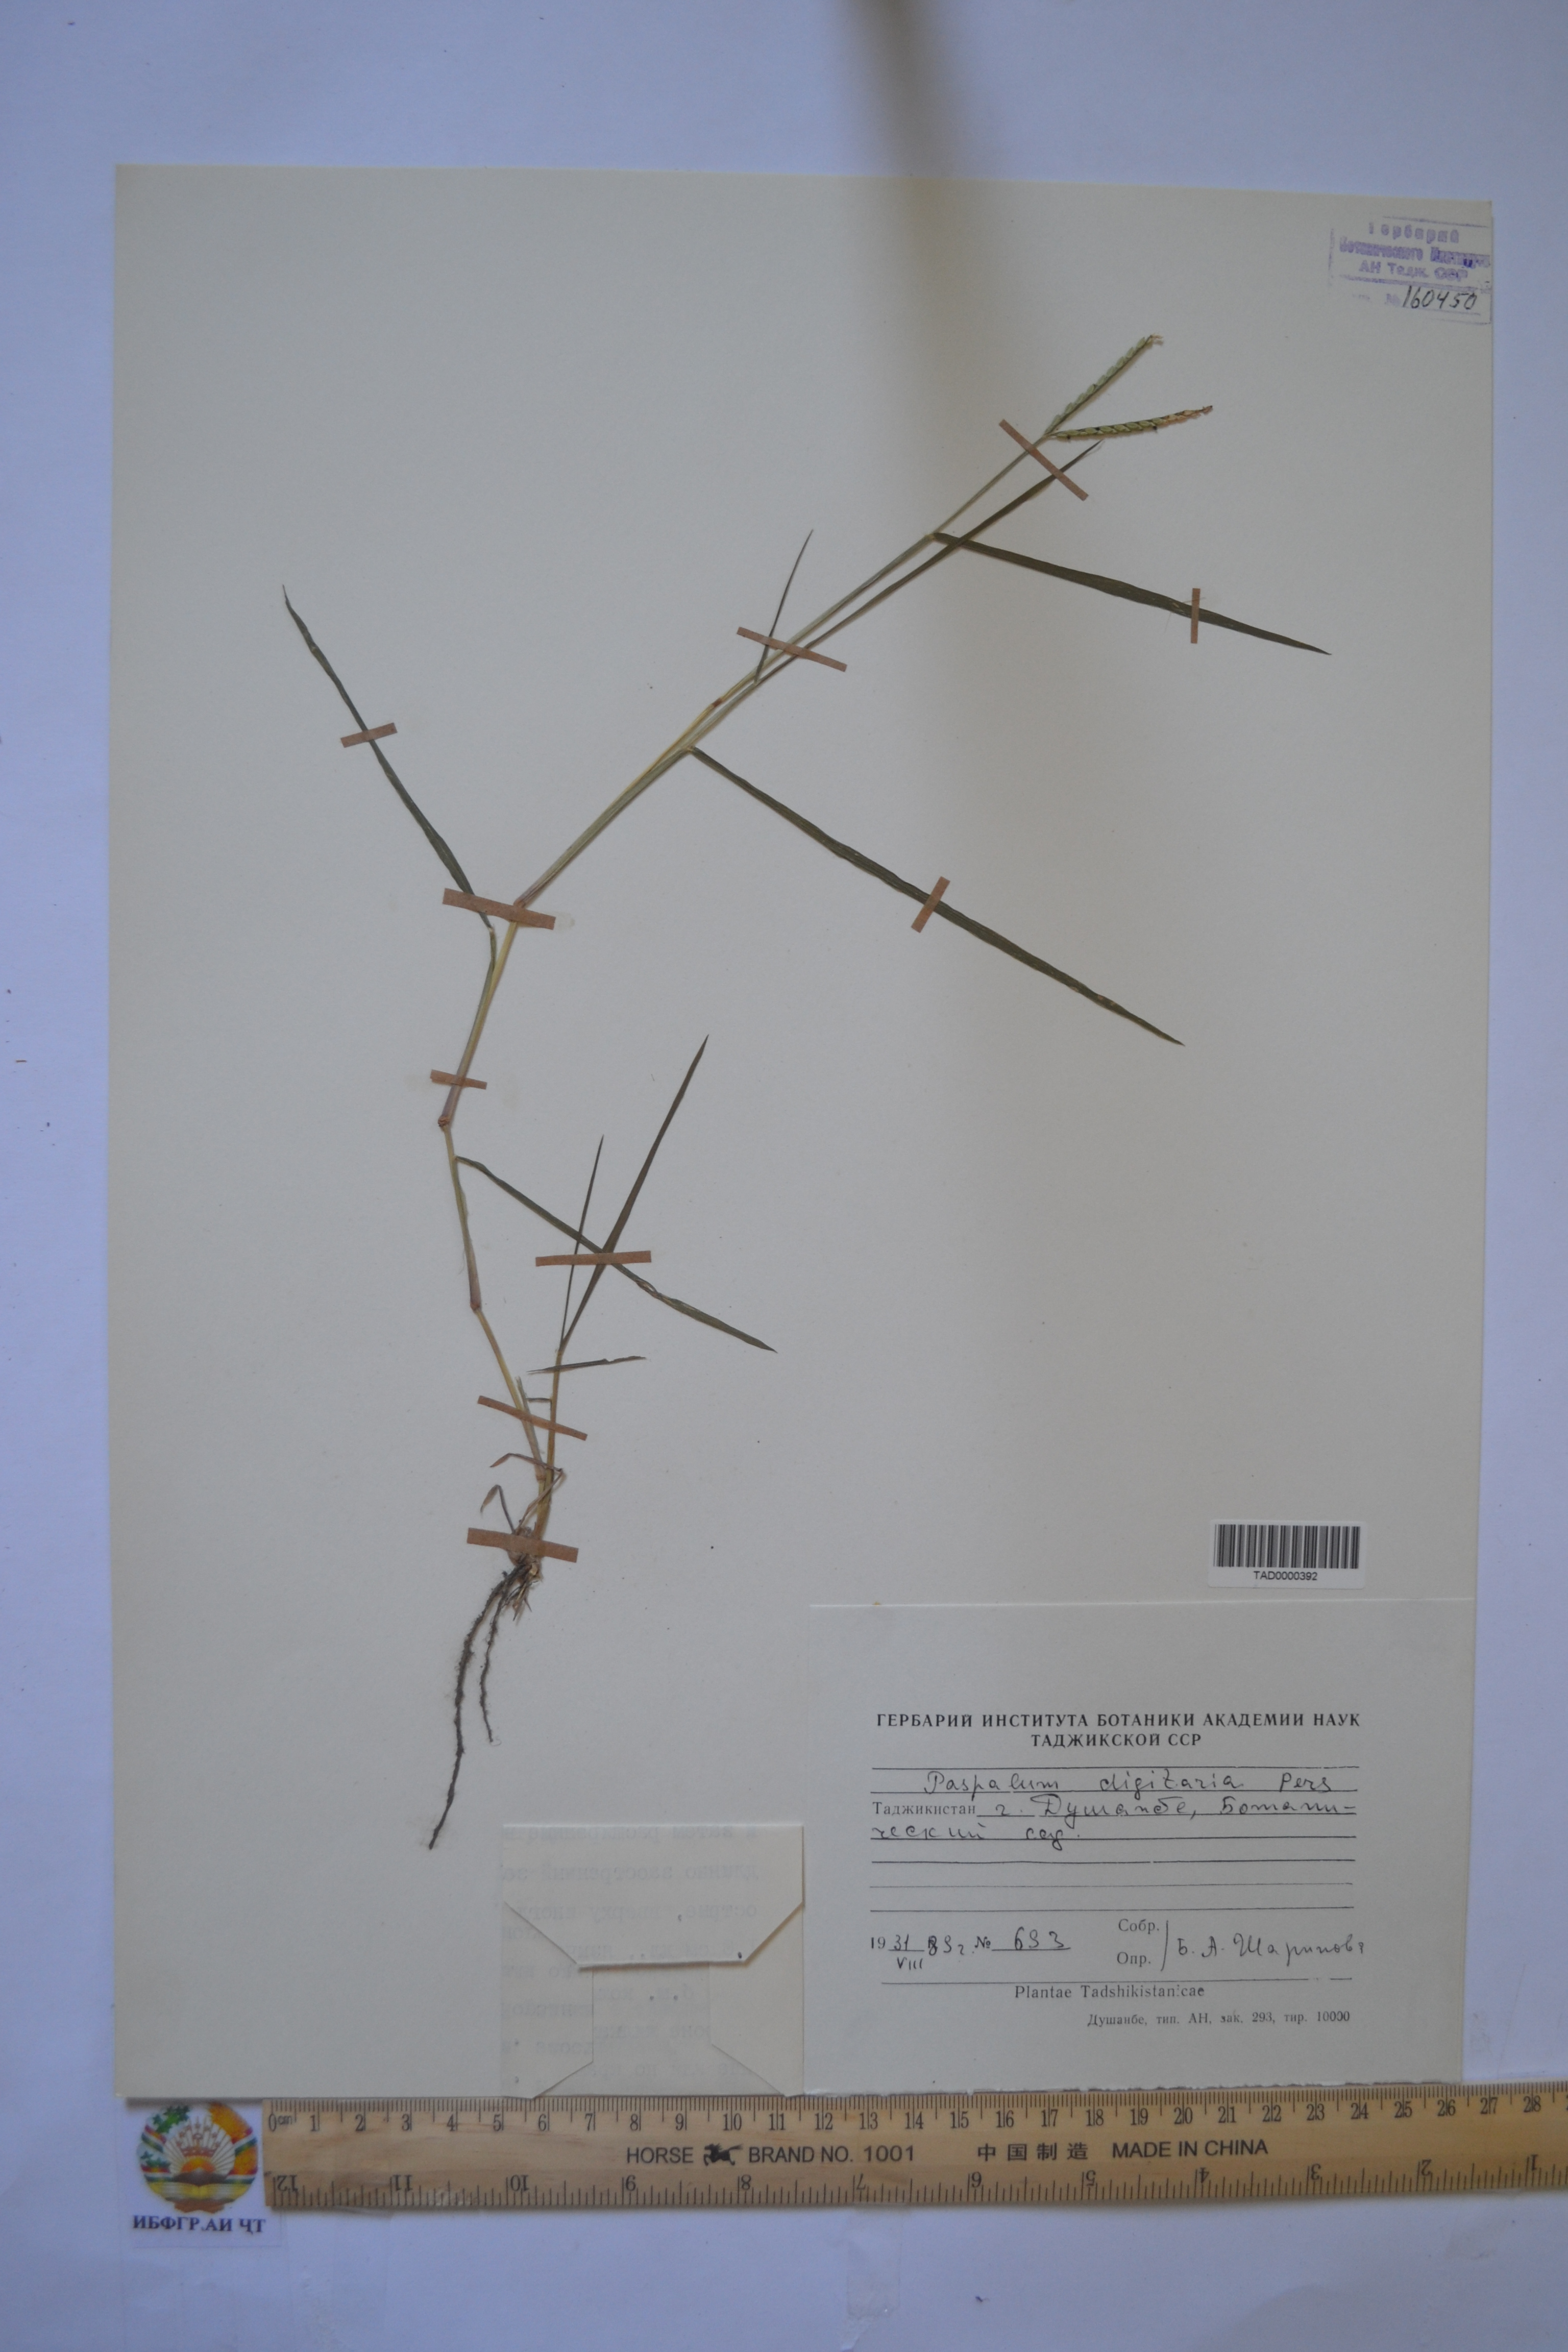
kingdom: Plantae
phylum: Tracheophyta
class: Liliopsida
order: Poales
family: Poaceae
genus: Paspalum
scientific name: Paspalum distichum
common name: Knotgrass
